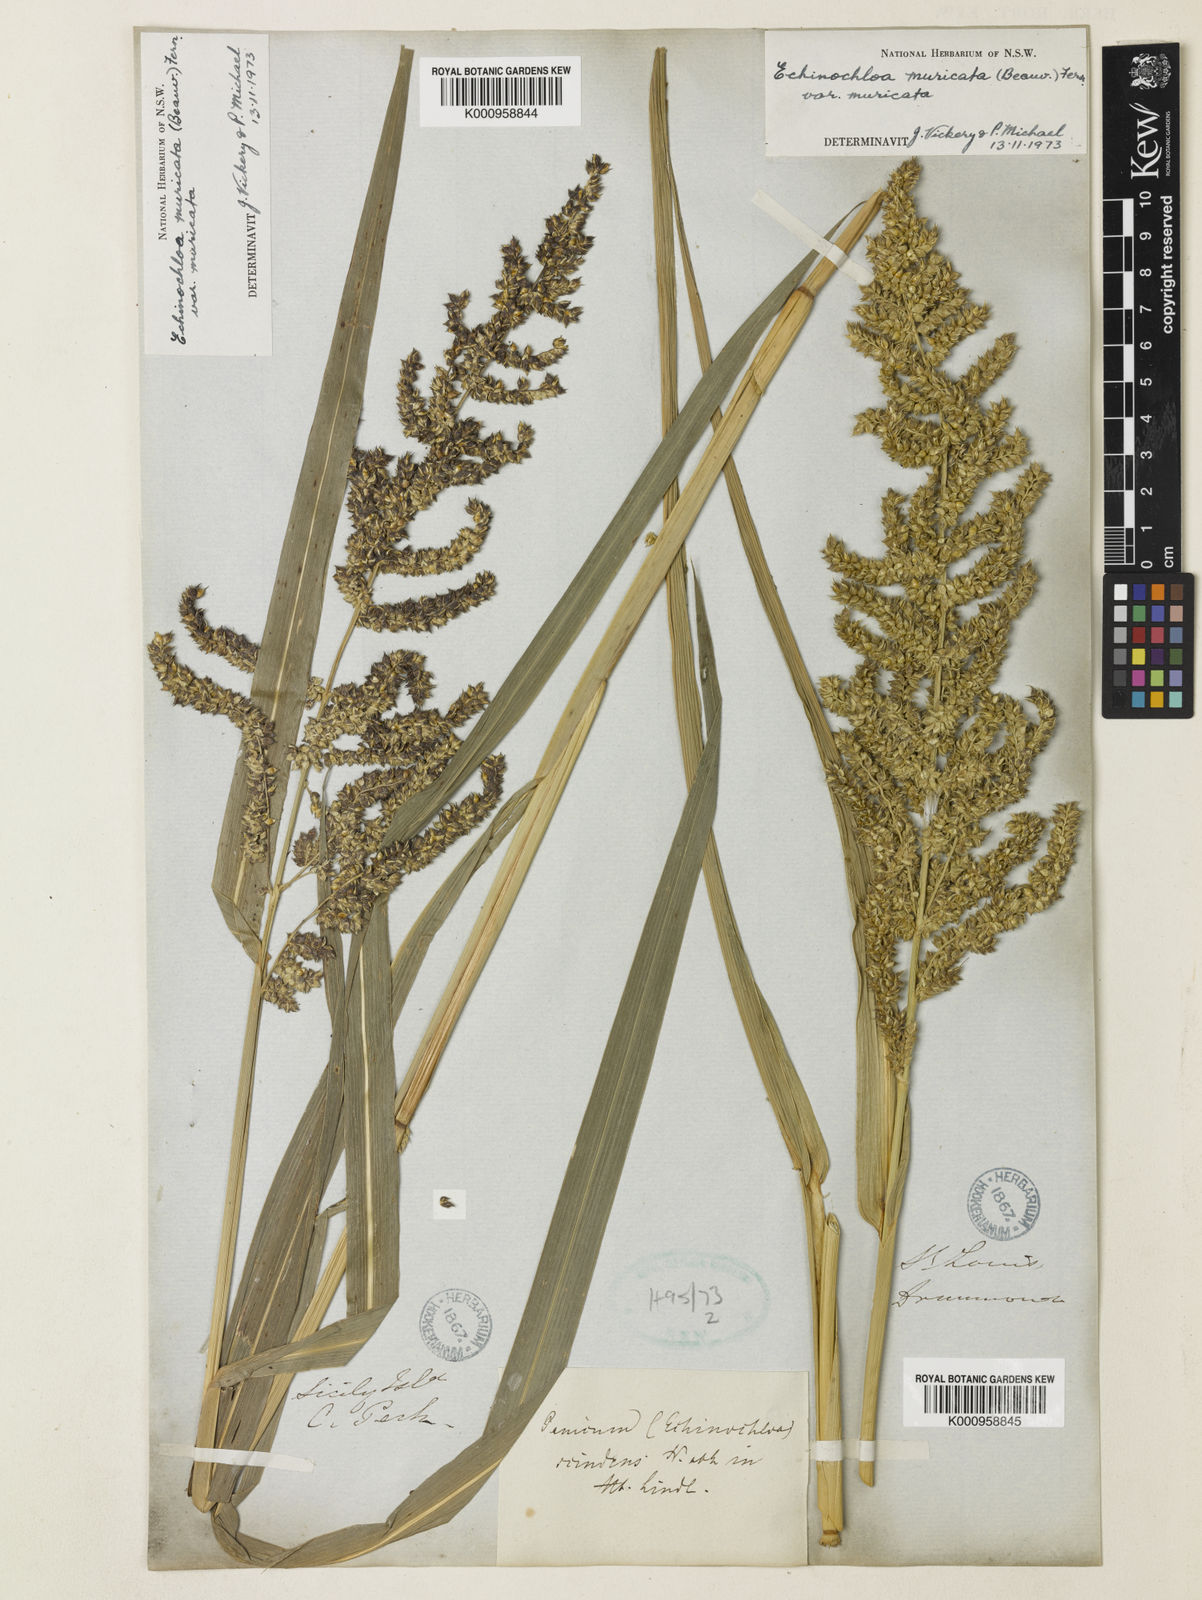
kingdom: Plantae
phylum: Tracheophyta
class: Liliopsida
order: Poales
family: Poaceae
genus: Echinochloa
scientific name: Echinochloa muricata
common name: American barnyard grass
